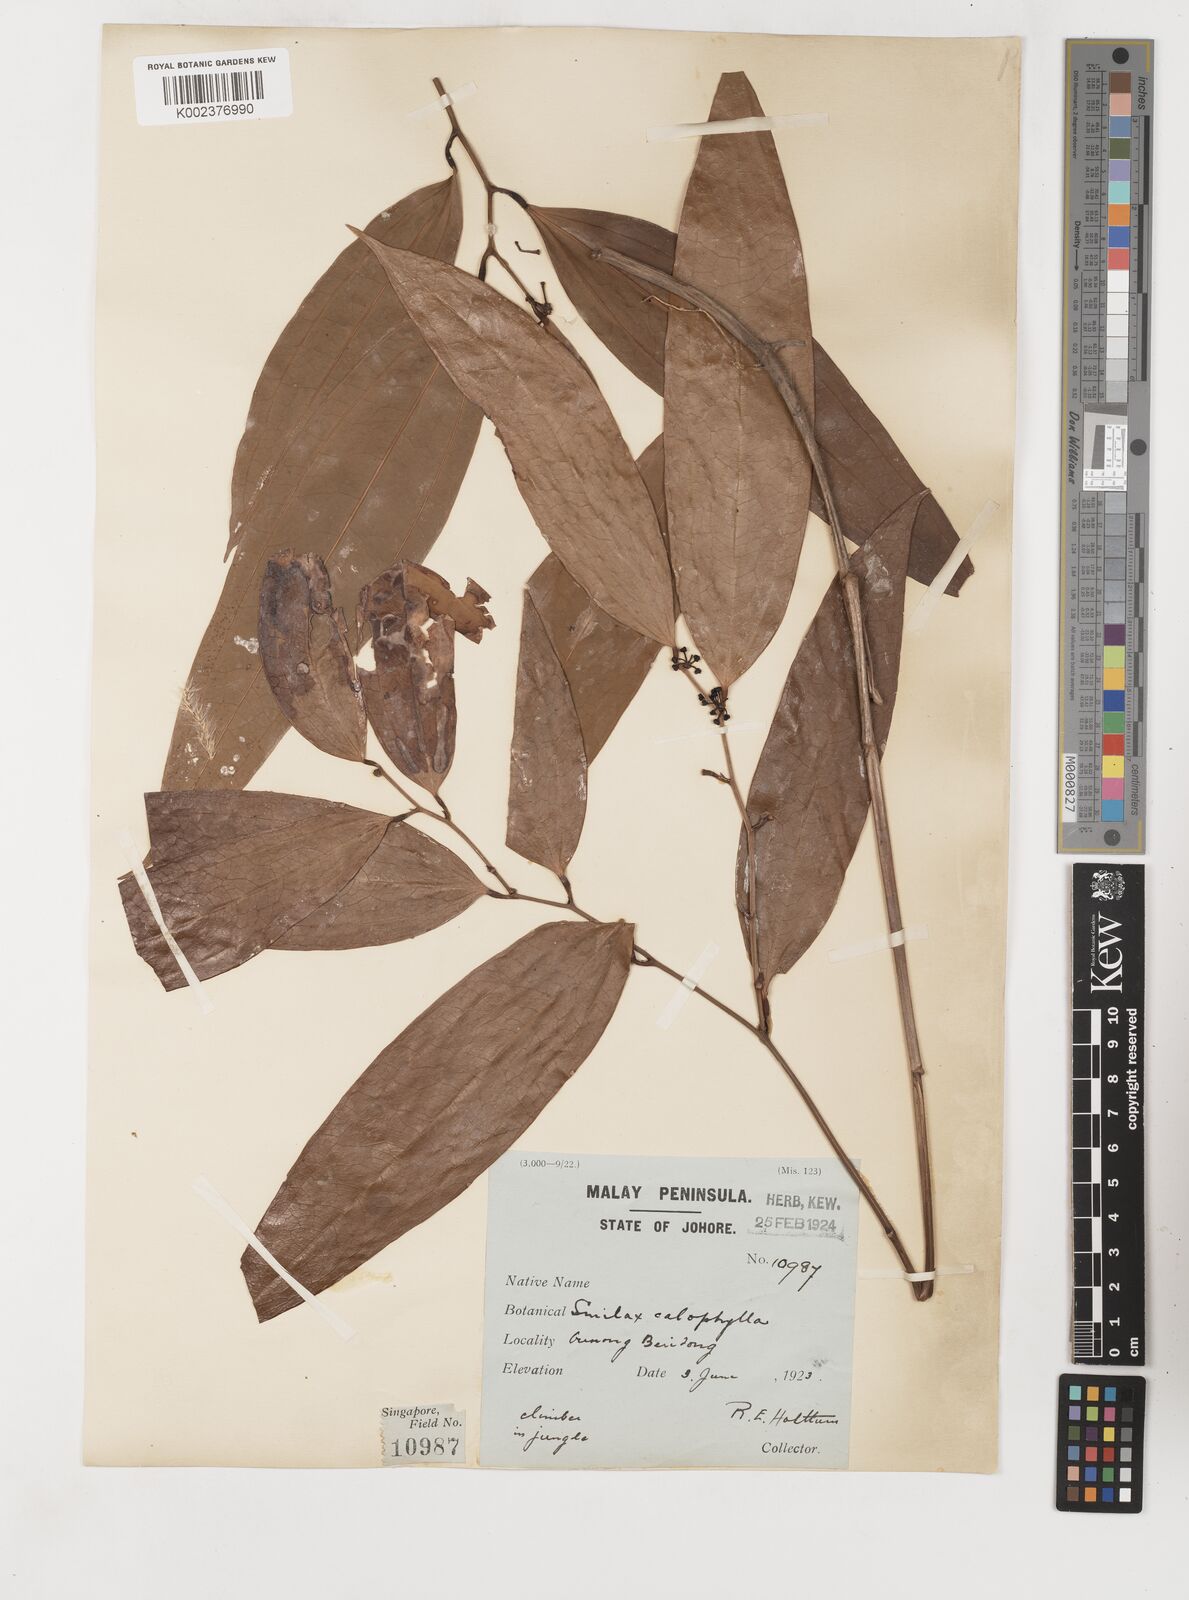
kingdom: Plantae
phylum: Tracheophyta
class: Liliopsida
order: Liliales
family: Smilacaceae
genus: Smilax
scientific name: Smilax calophylla
